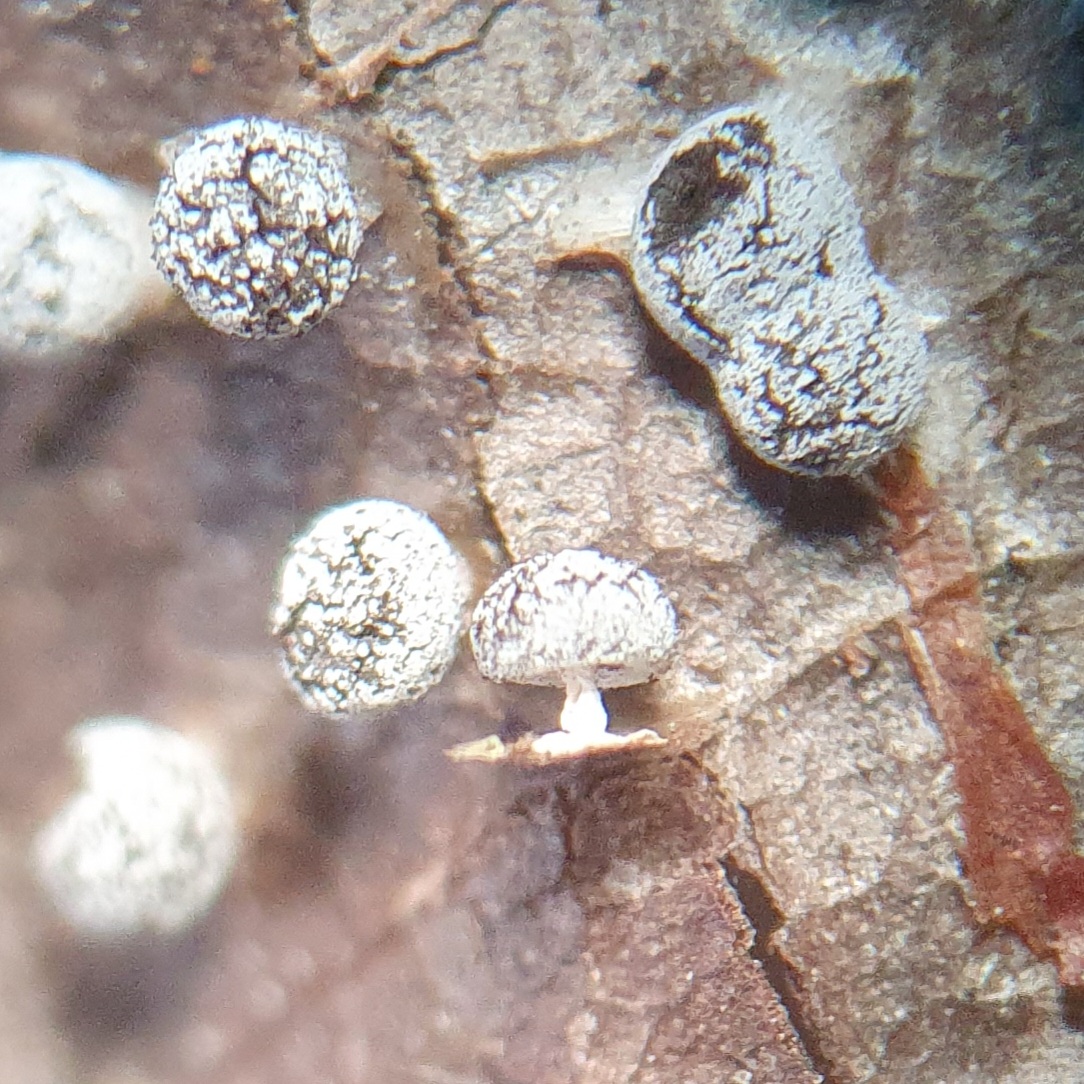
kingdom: Protozoa
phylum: Mycetozoa
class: Myxomycetes
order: Physarales
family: Didymiaceae
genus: Didymium
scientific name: Didymium squamulosum
